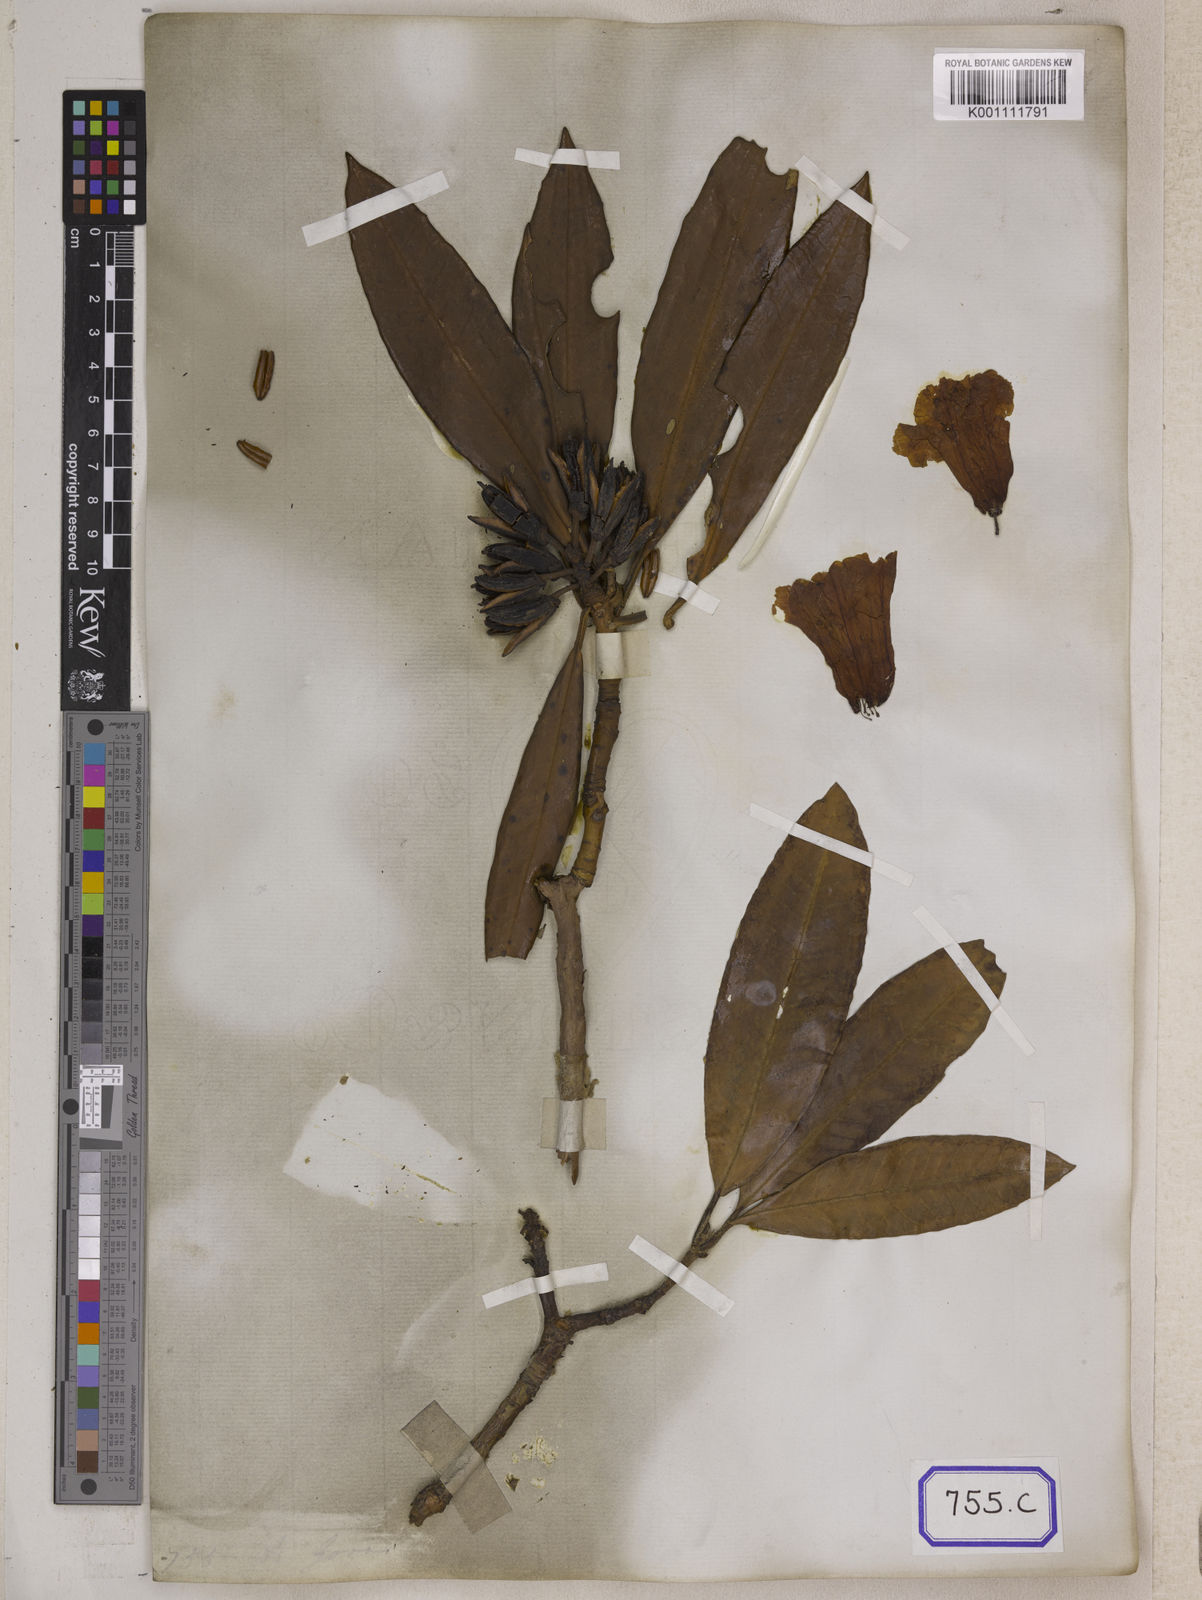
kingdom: Plantae
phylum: Tracheophyta
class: Magnoliopsida
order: Ericales
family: Ericaceae
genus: Rhododendron
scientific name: Rhododendron arboreum
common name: Tree rhododendron
